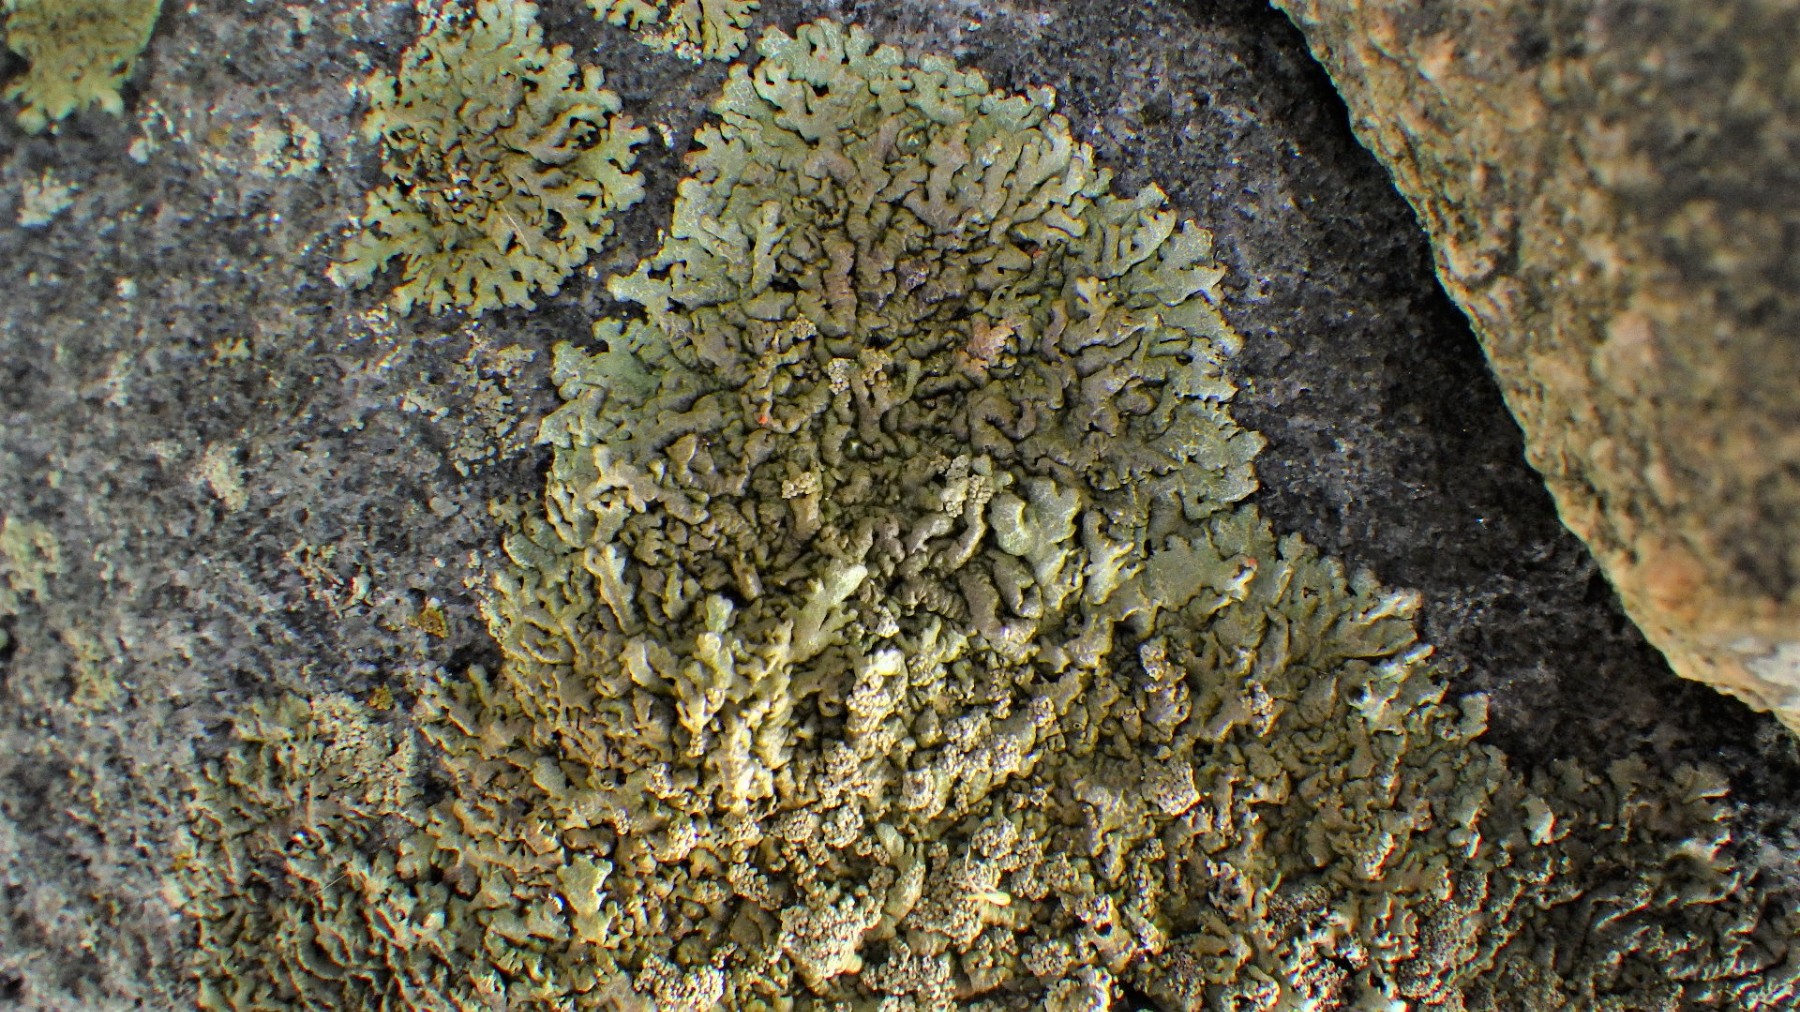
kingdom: Fungi
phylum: Ascomycota
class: Lecanoromycetes
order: Lecanorales
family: Parmeliaceae
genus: Xanthoparmelia
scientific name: Xanthoparmelia loxodes
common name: knudret skållav
